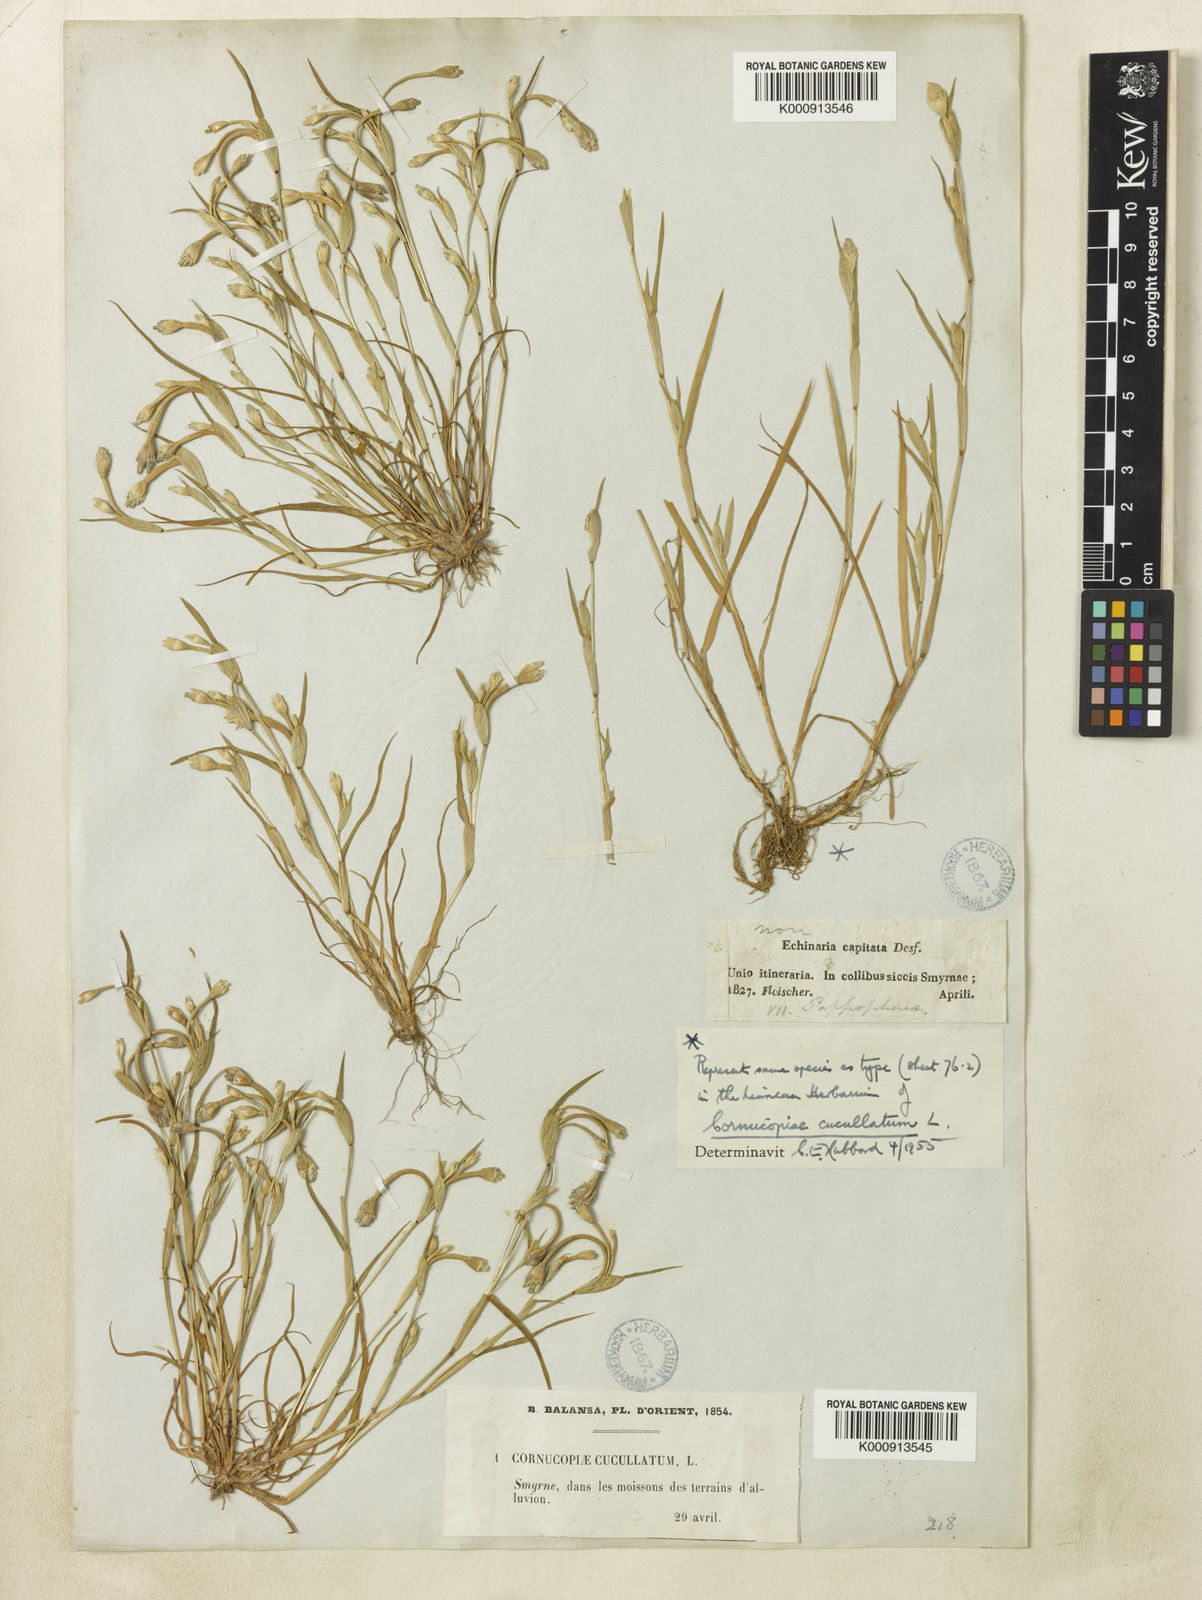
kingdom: Plantae
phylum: Tracheophyta
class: Liliopsida
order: Poales
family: Poaceae
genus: Cornucopiae
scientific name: Cornucopiae cucullatum
